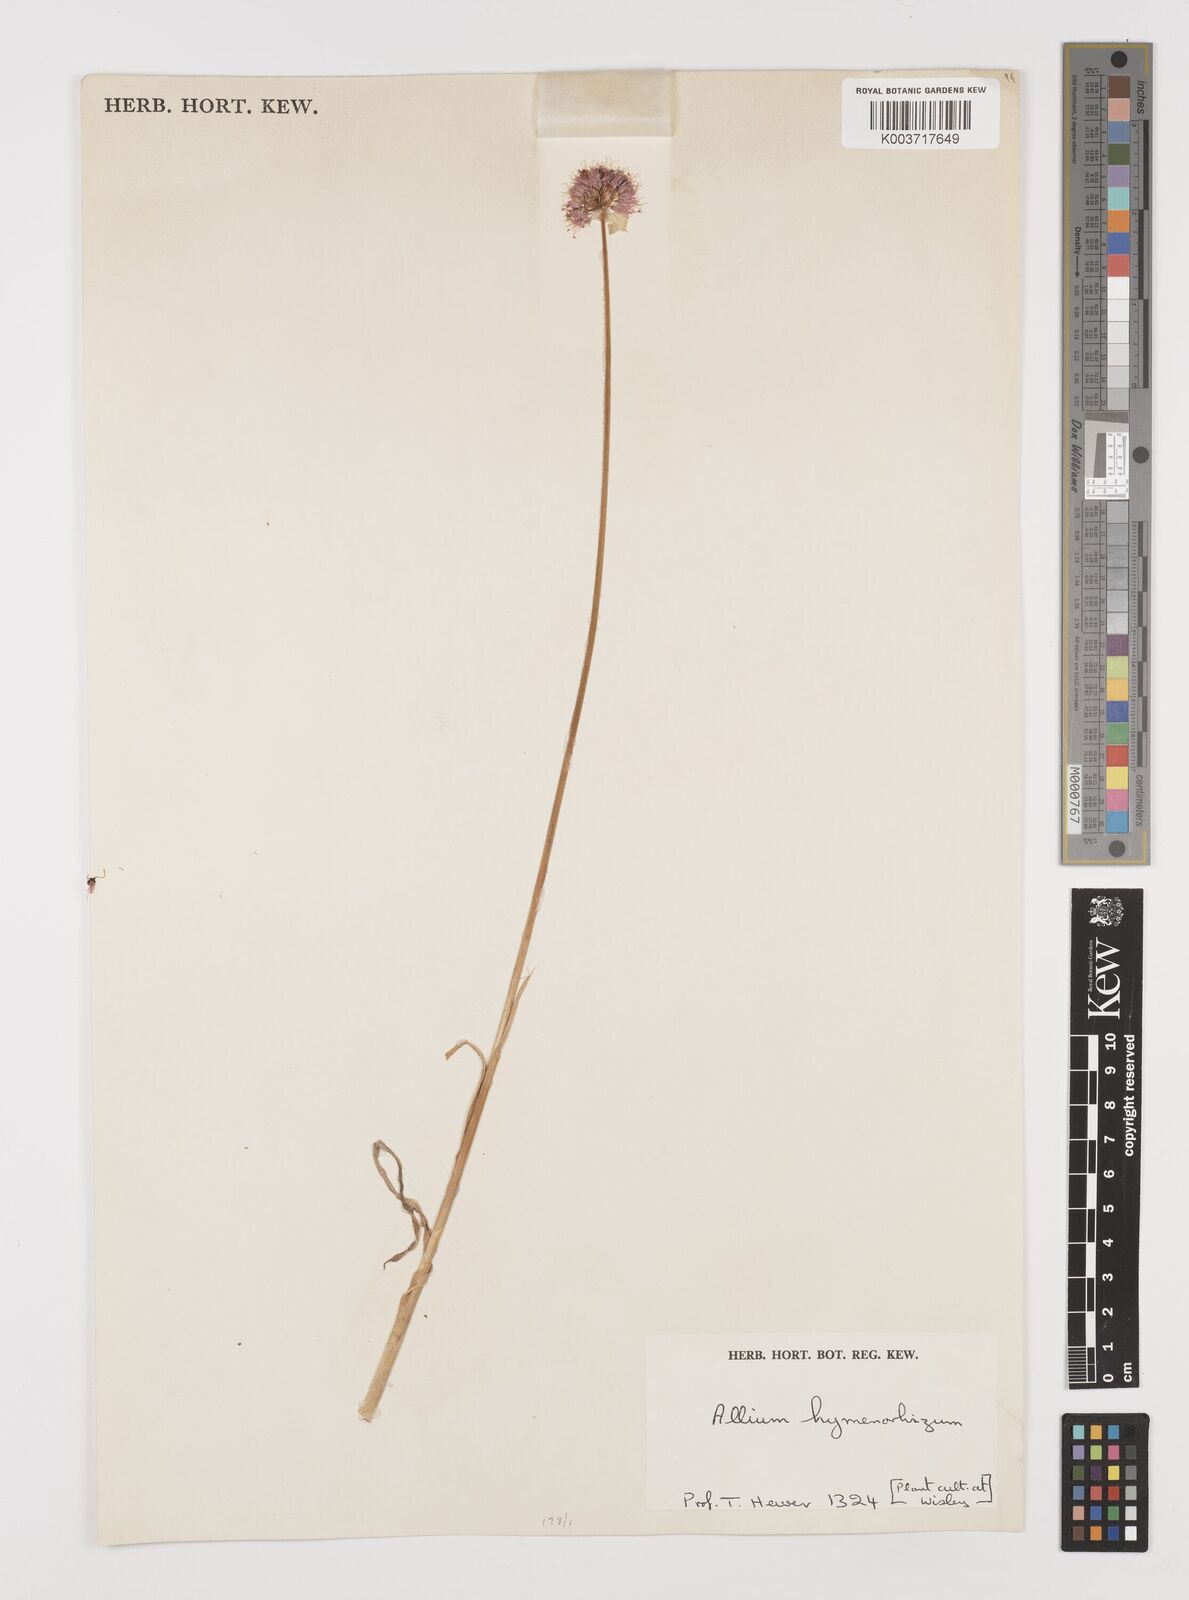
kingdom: Plantae
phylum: Tracheophyta
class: Liliopsida
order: Asparagales
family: Amaryllidaceae
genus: Allium
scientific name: Allium hymenorhizum
